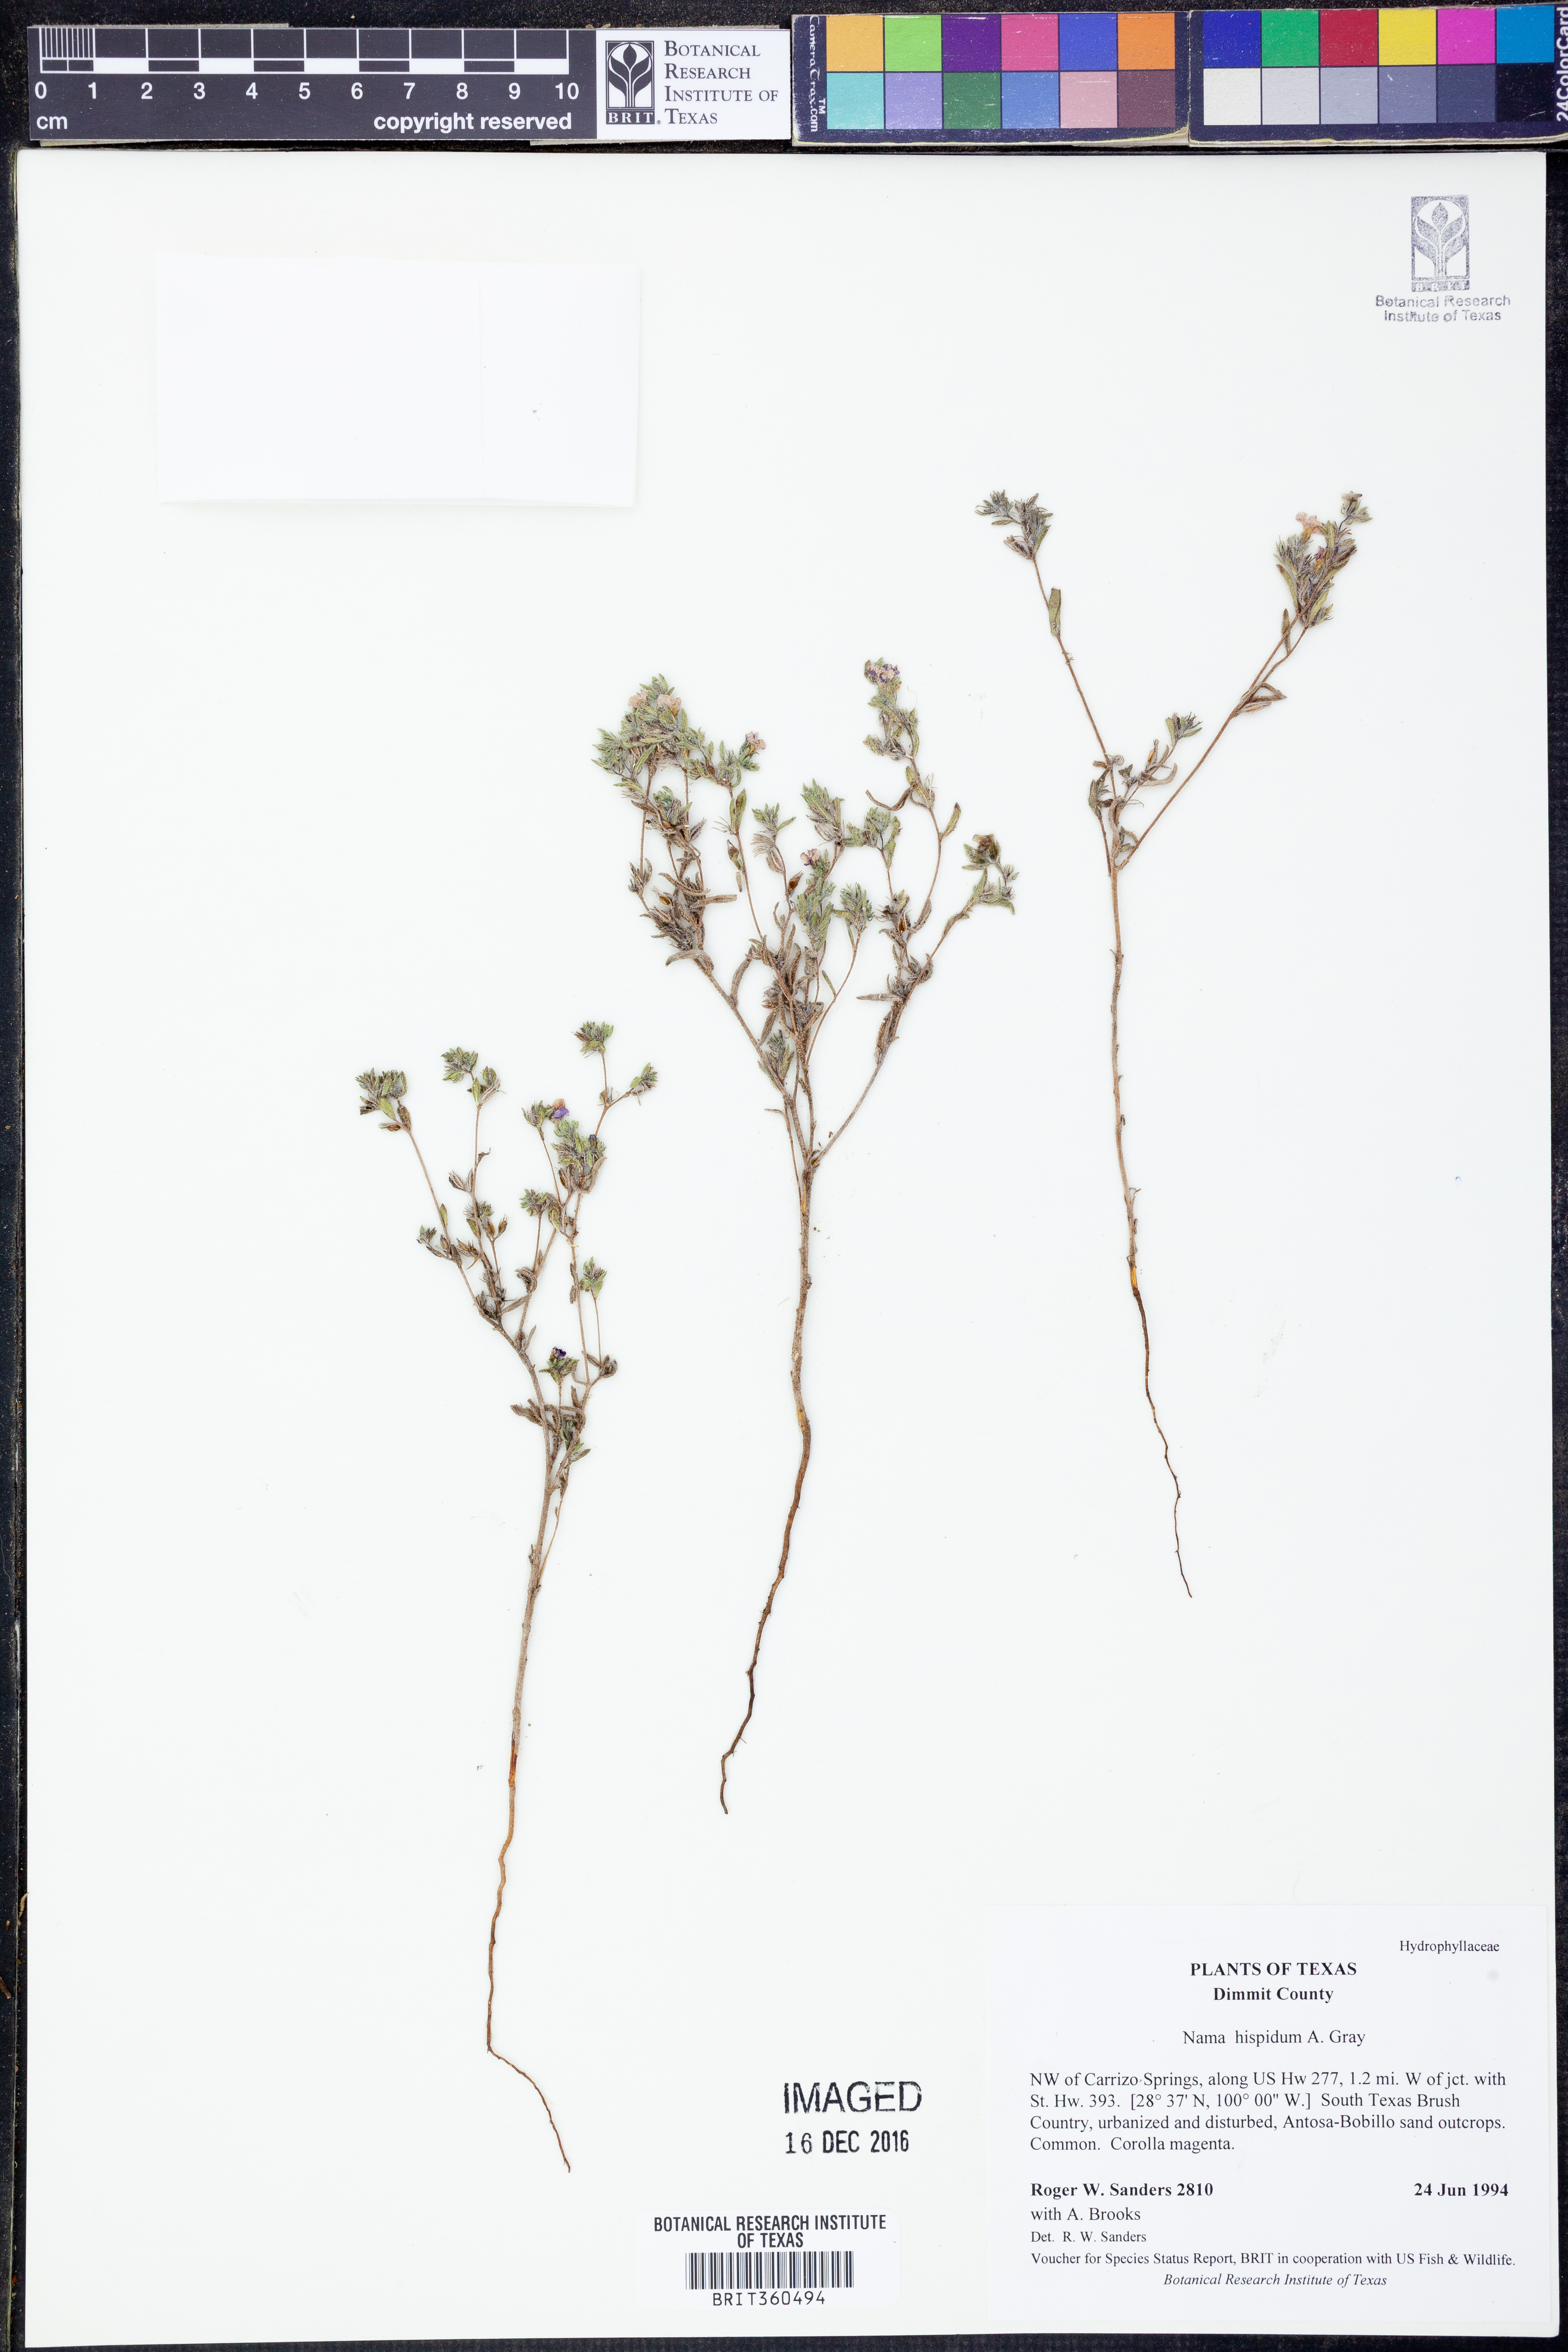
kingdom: Plantae
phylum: Tracheophyta
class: Magnoliopsida
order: Boraginales
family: Namaceae
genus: Nama
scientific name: Nama hispida
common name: Bristly nama
